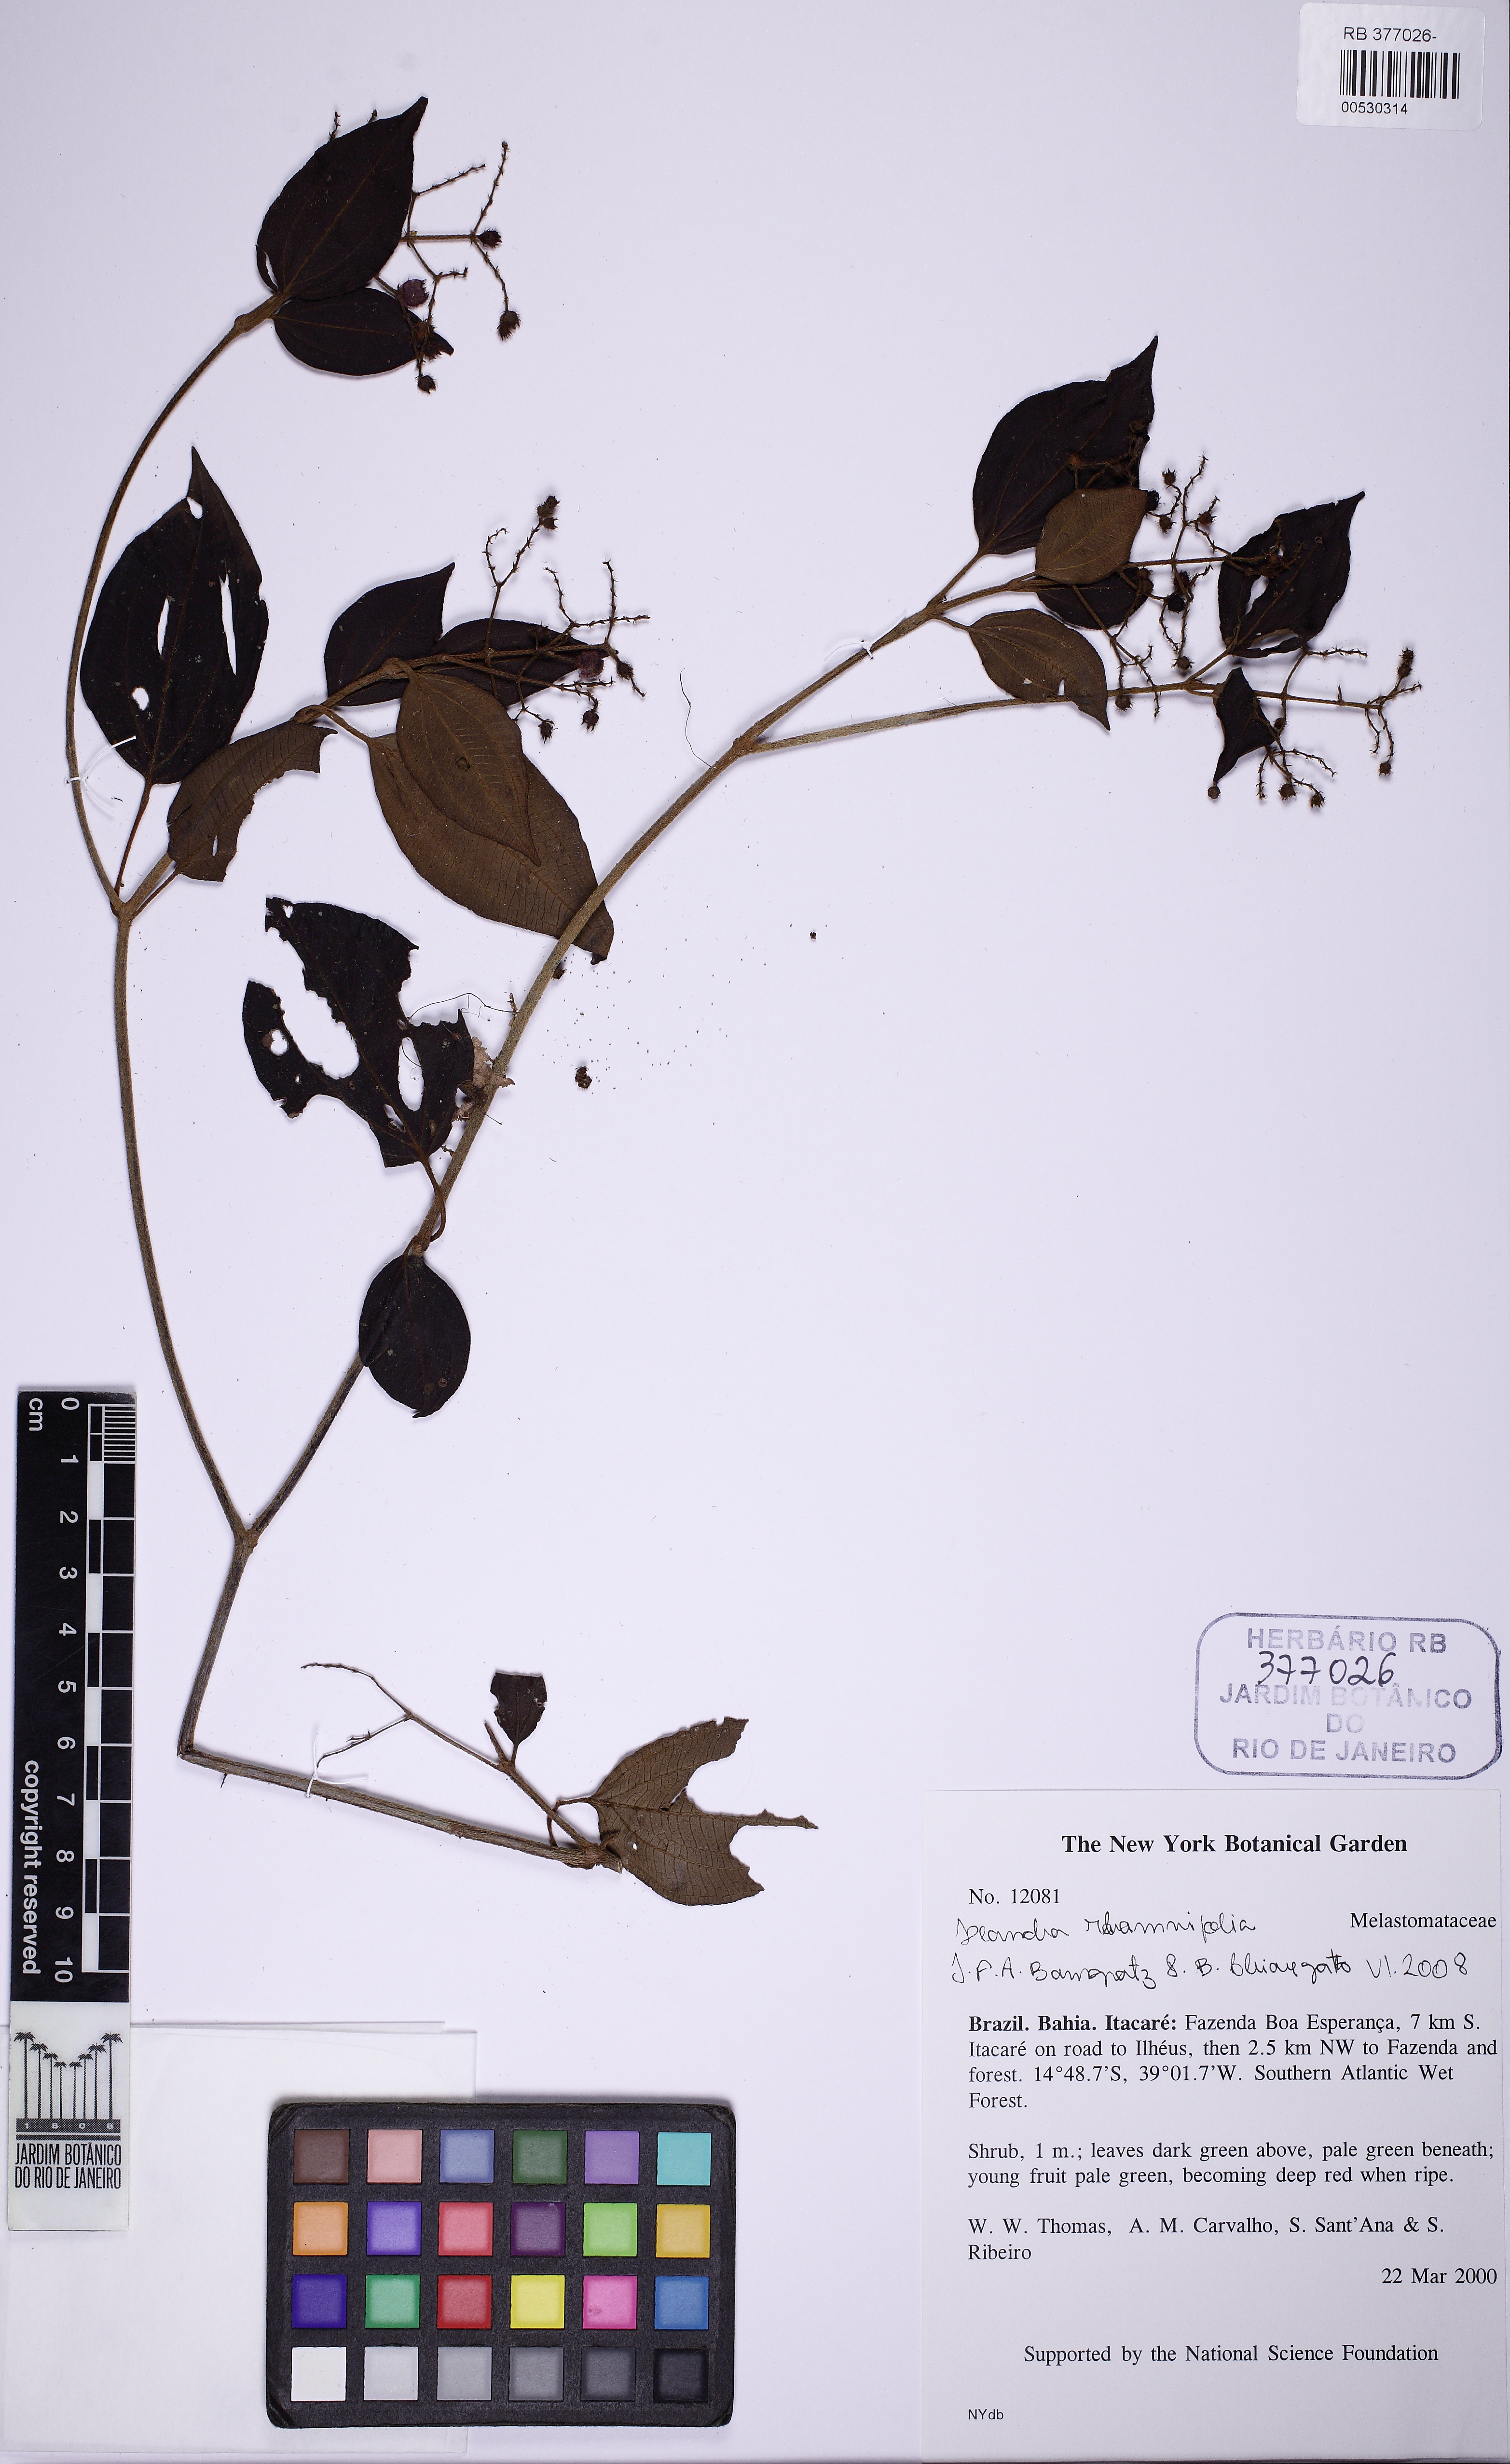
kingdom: Plantae
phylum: Tracheophyta
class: Magnoliopsida
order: Myrtales
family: Melastomataceae
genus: Miconia
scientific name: Miconia rhamnifolia
